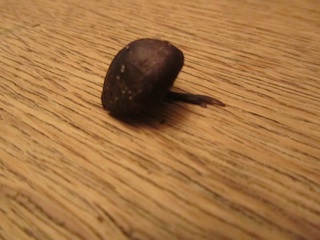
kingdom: Fungi
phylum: Basidiomycota
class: Agaricomycetes
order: Agaricales
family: Entolomataceae
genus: Entoloma
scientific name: Entoloma chalybeum
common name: blåbladet rødblad
